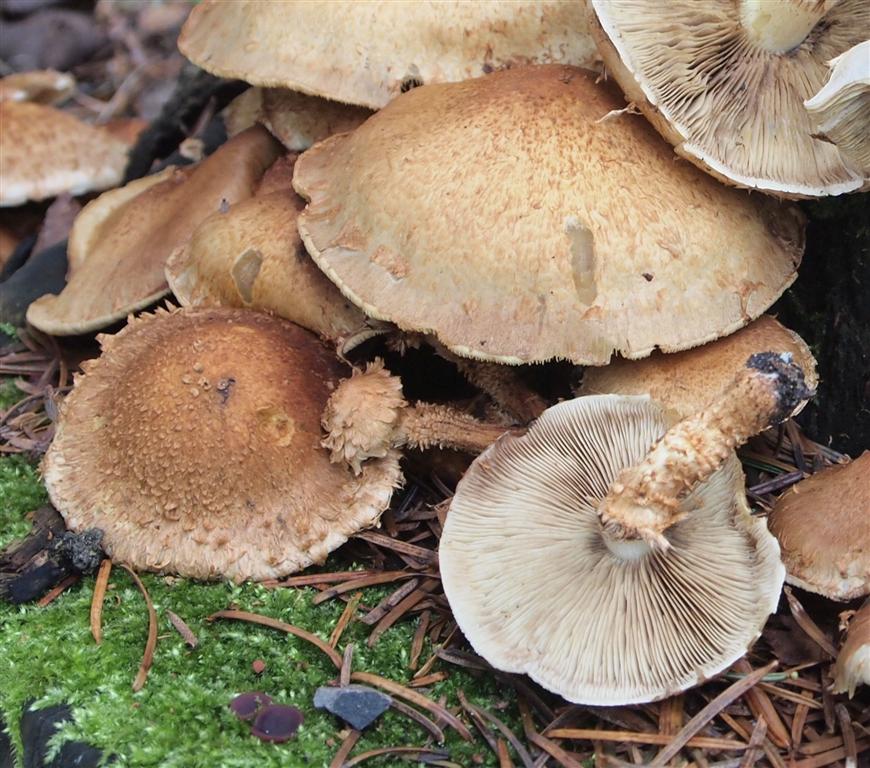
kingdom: Fungi
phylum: Basidiomycota
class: Agaricomycetes
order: Agaricales
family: Strophariaceae
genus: Pholiota
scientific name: Pholiota squarrosa
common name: krumskællet skælhat
